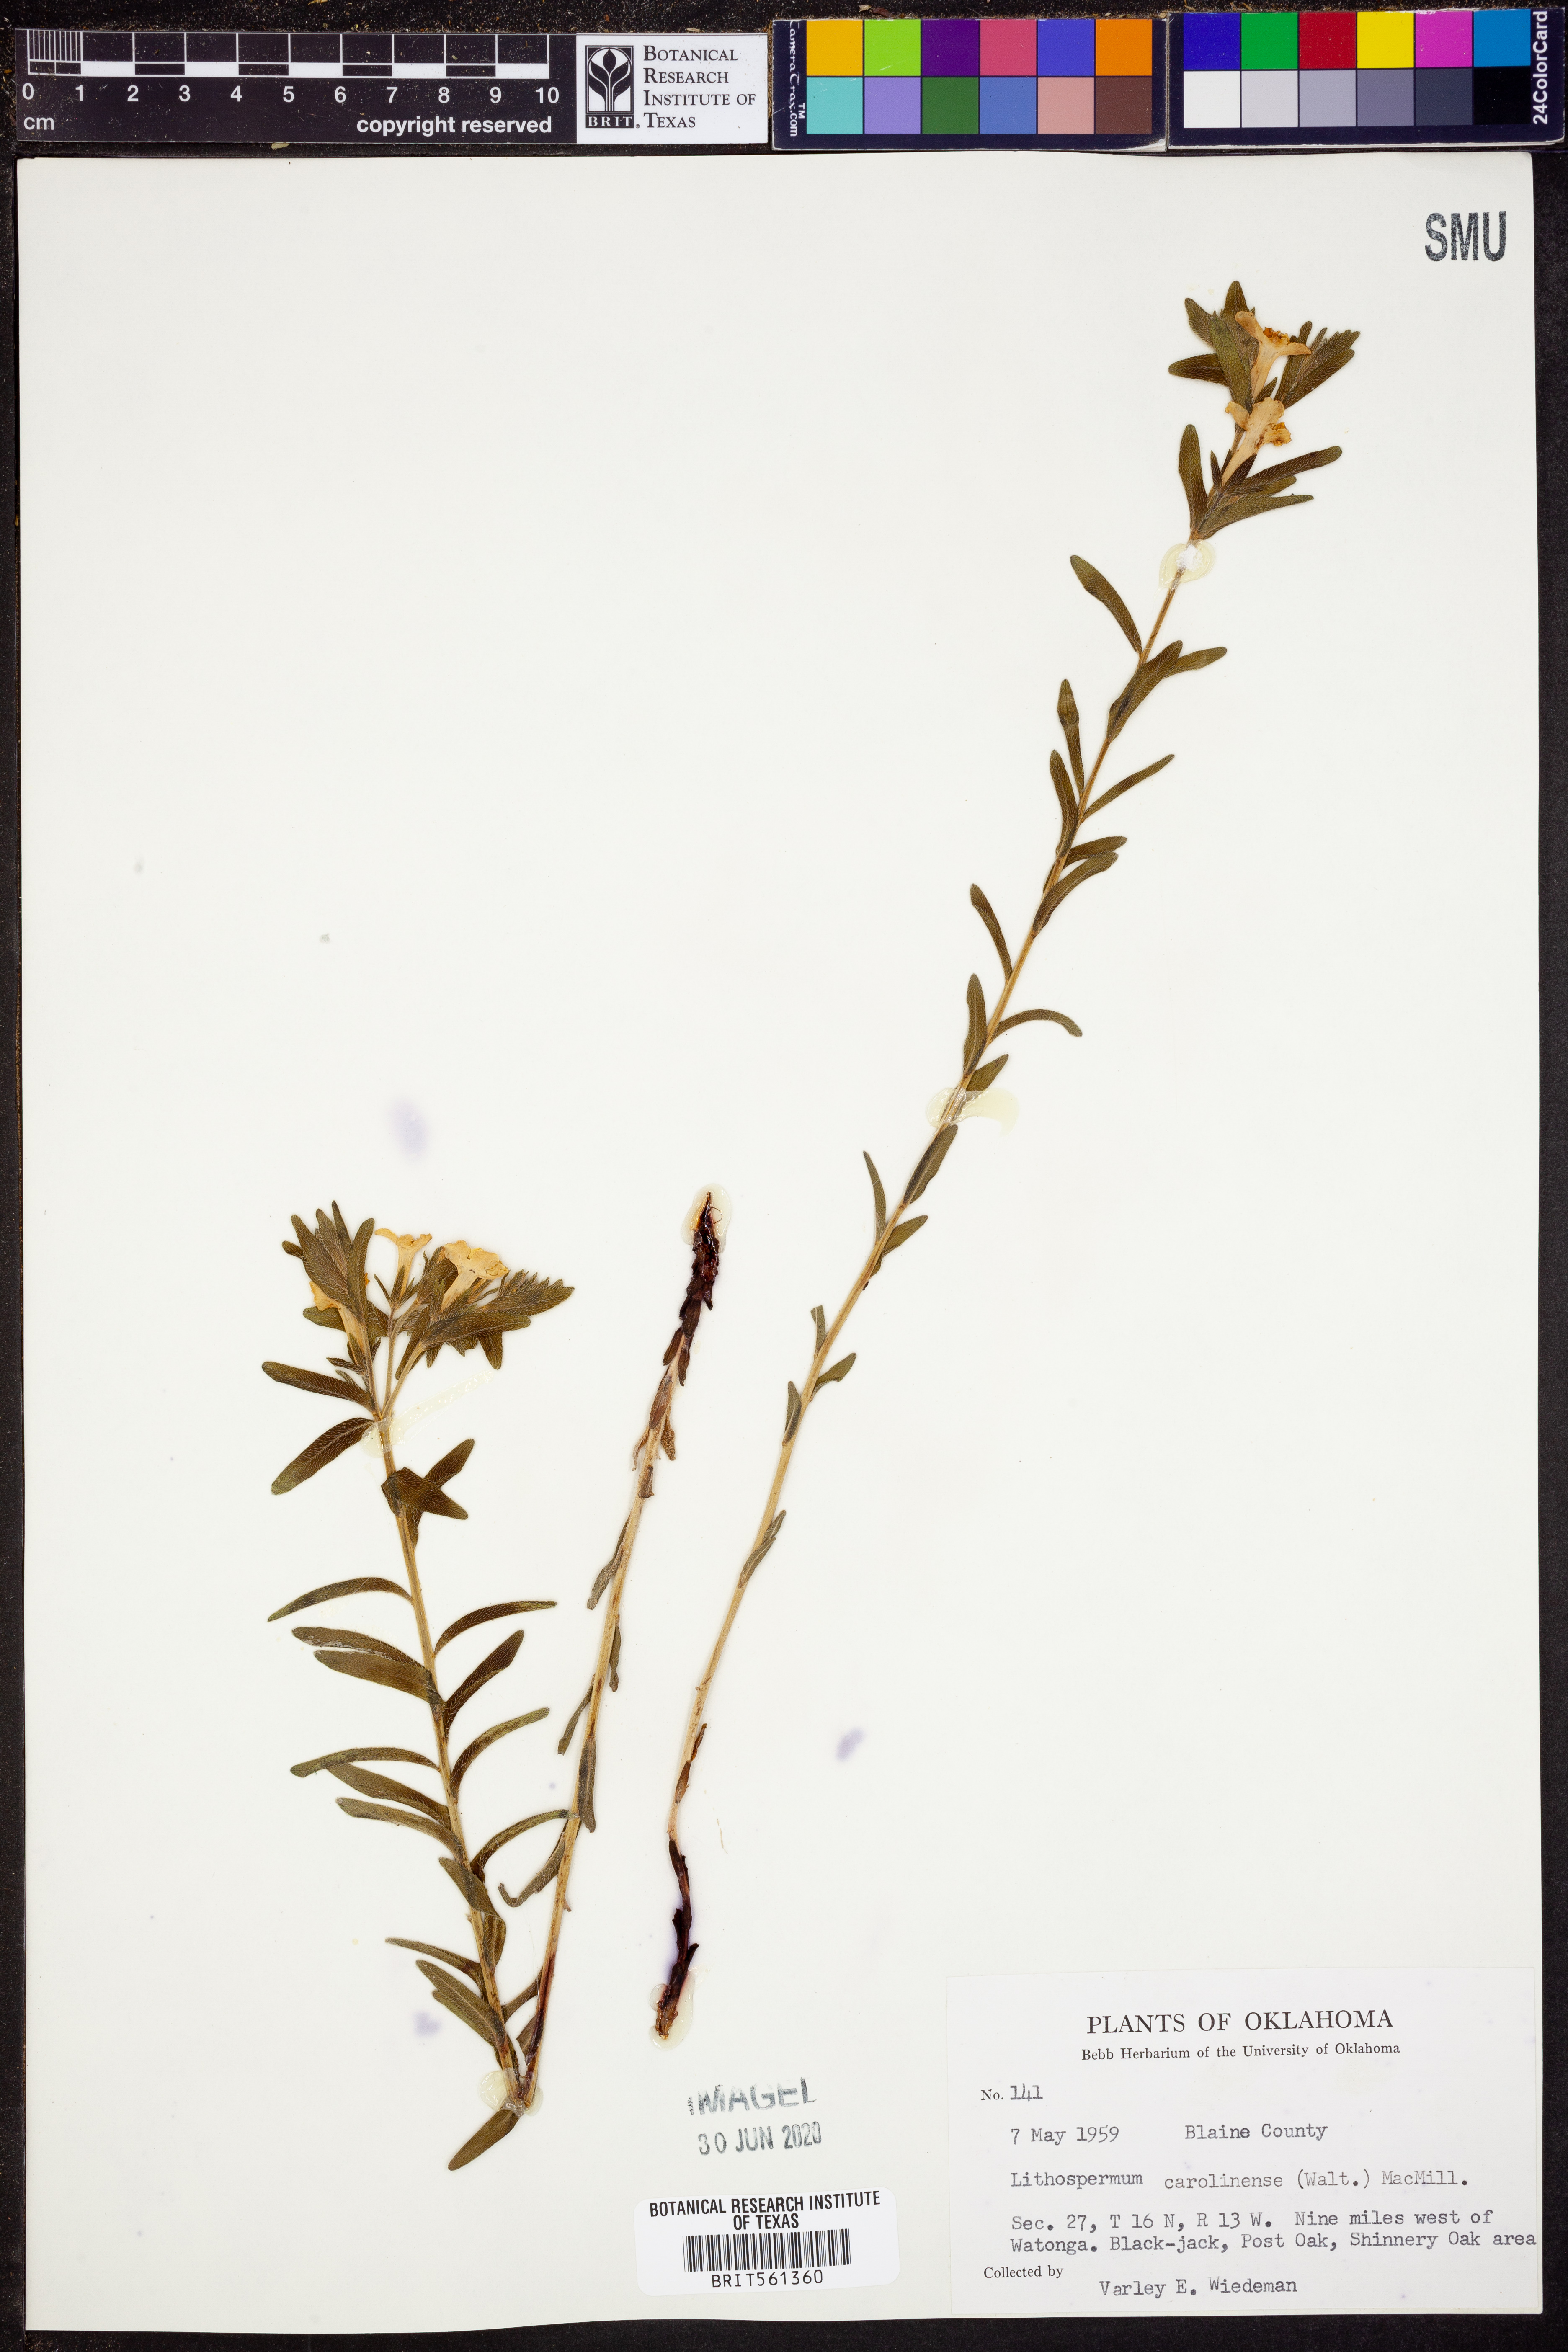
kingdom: Plantae
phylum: Tracheophyta
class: Magnoliopsida
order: Boraginales
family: Boraginaceae
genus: Lithospermum
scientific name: Lithospermum caroliniense
